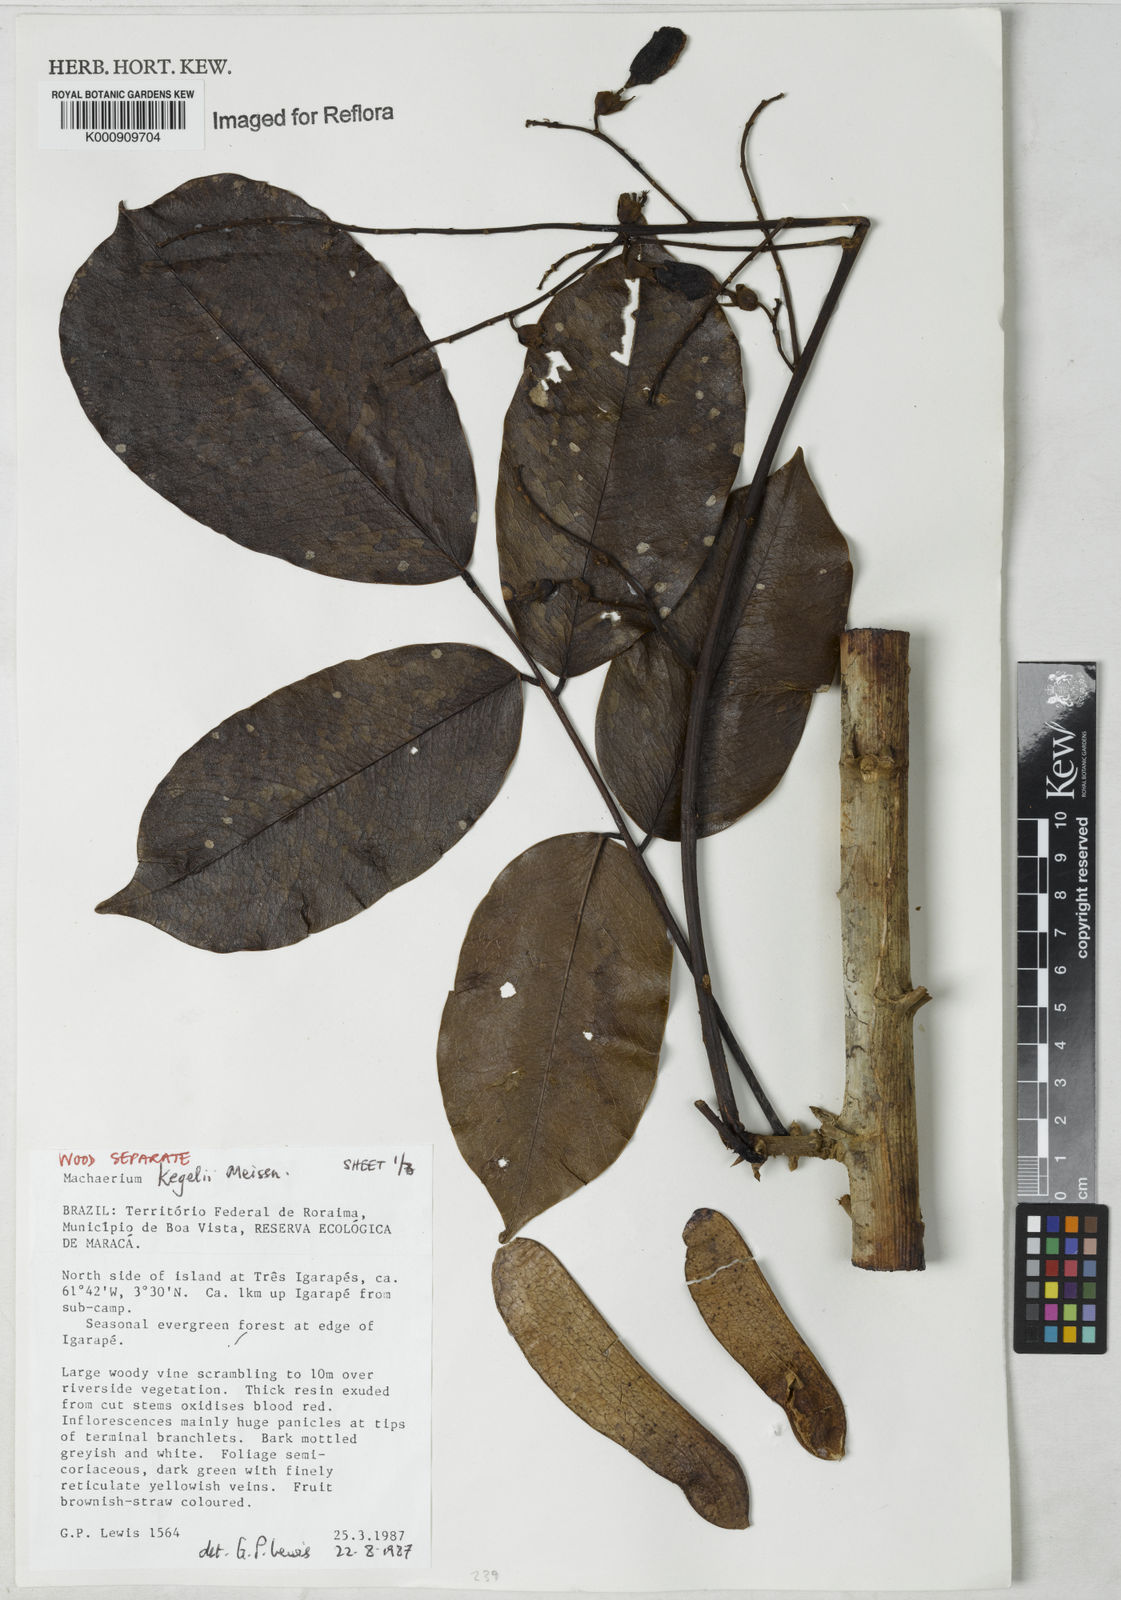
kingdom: Plantae
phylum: Tracheophyta
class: Magnoliopsida
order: Fabales
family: Fabaceae
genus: Machaerium
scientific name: Machaerium kegelii
